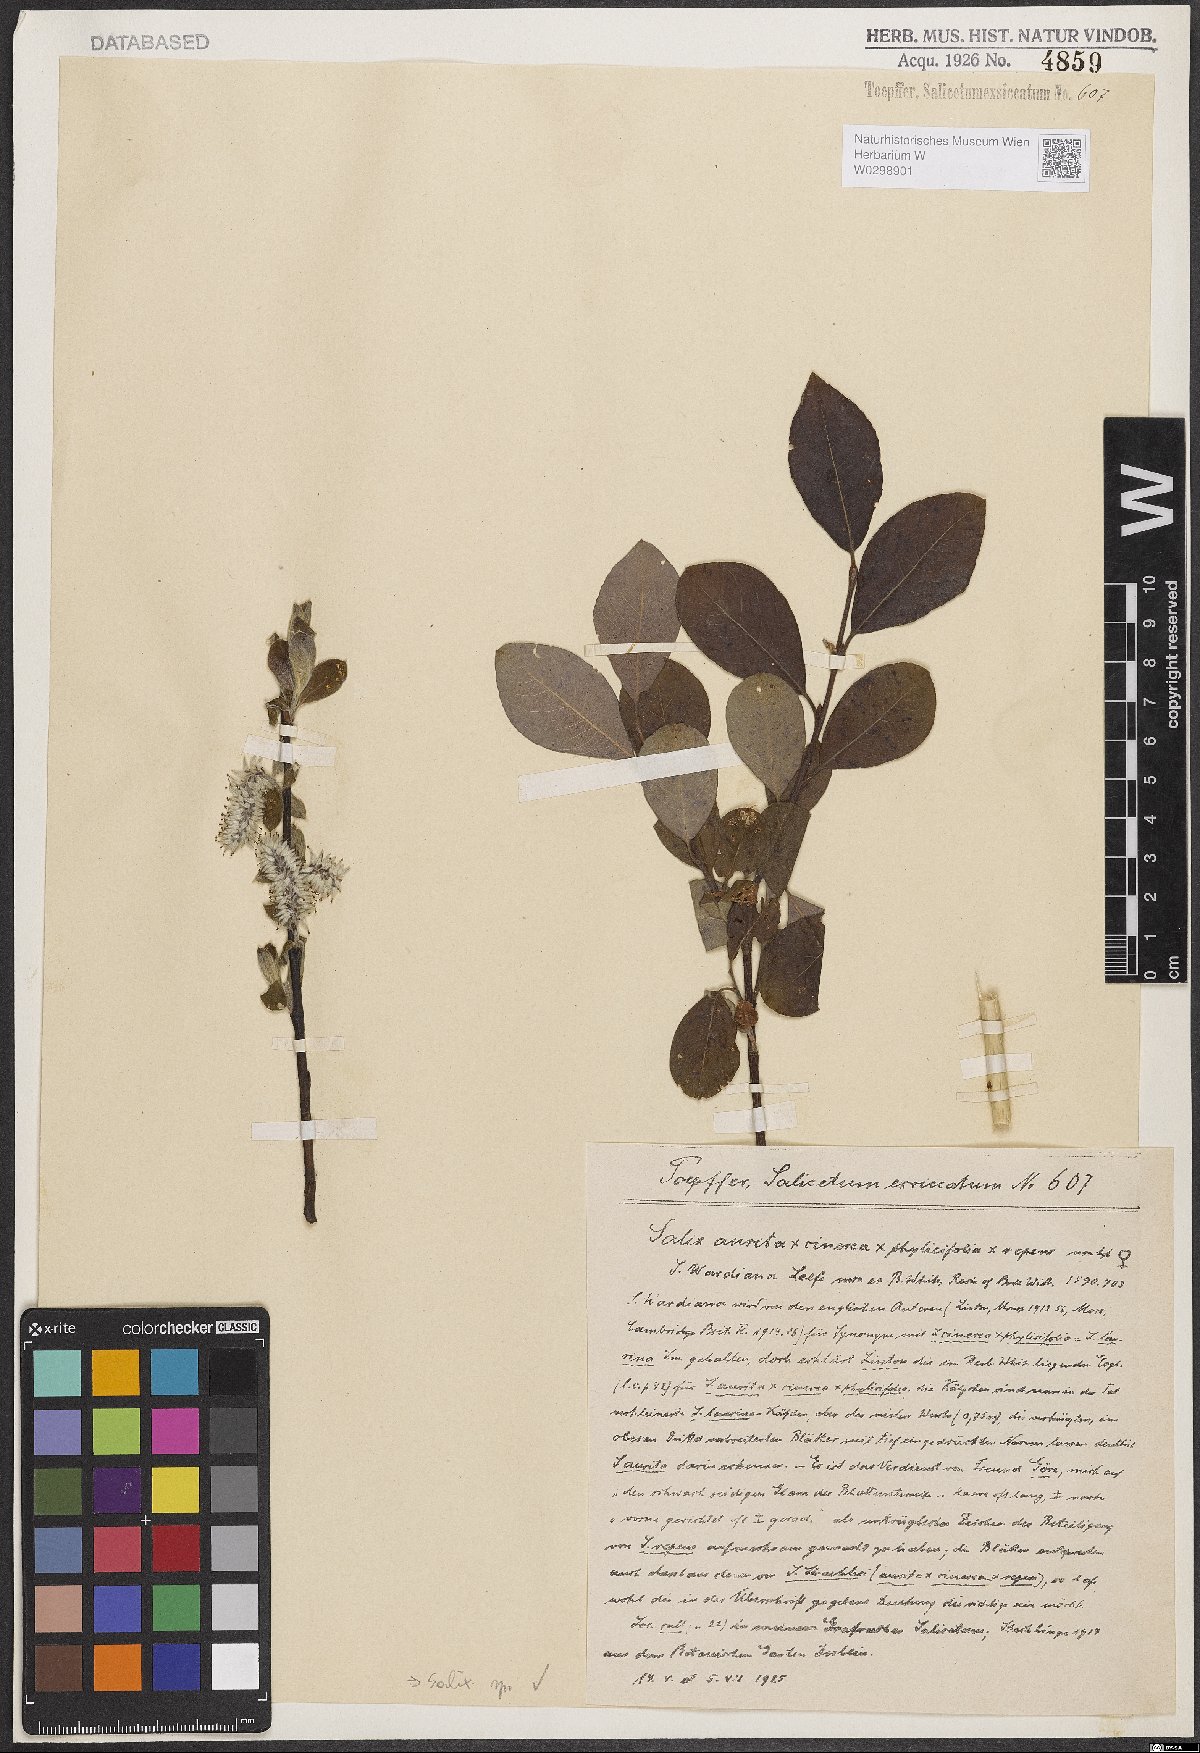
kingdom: Plantae
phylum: Tracheophyta
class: Magnoliopsida
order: Malpighiales
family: Salicaceae
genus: Salix
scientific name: Salix
